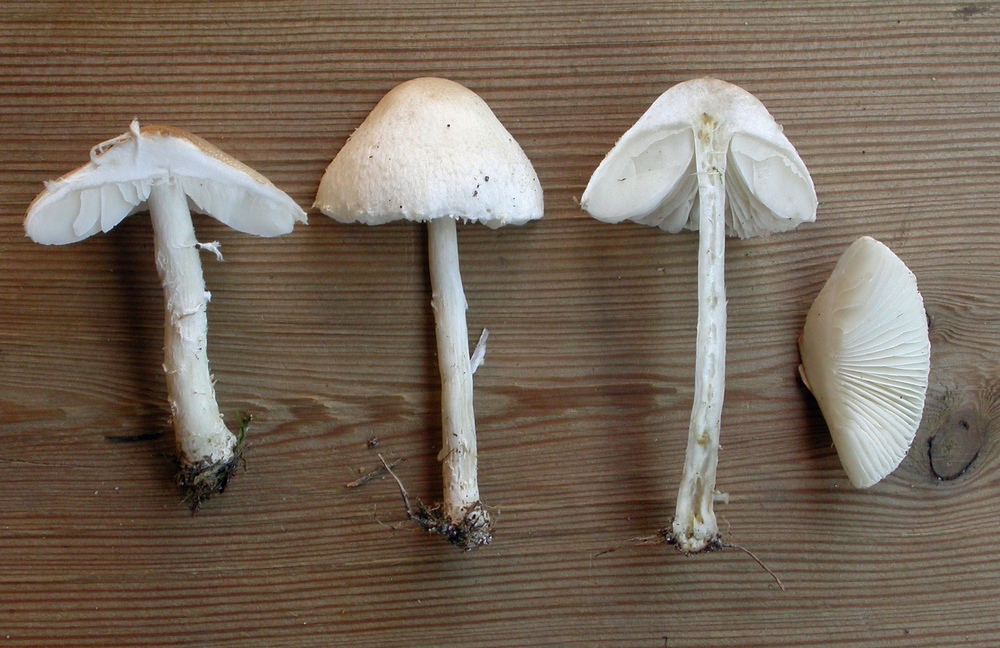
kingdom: Fungi
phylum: Basidiomycota
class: Agaricomycetes
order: Agaricales
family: Agaricaceae
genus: Lepiota
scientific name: Lepiota erminea
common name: hvid parasolhat
